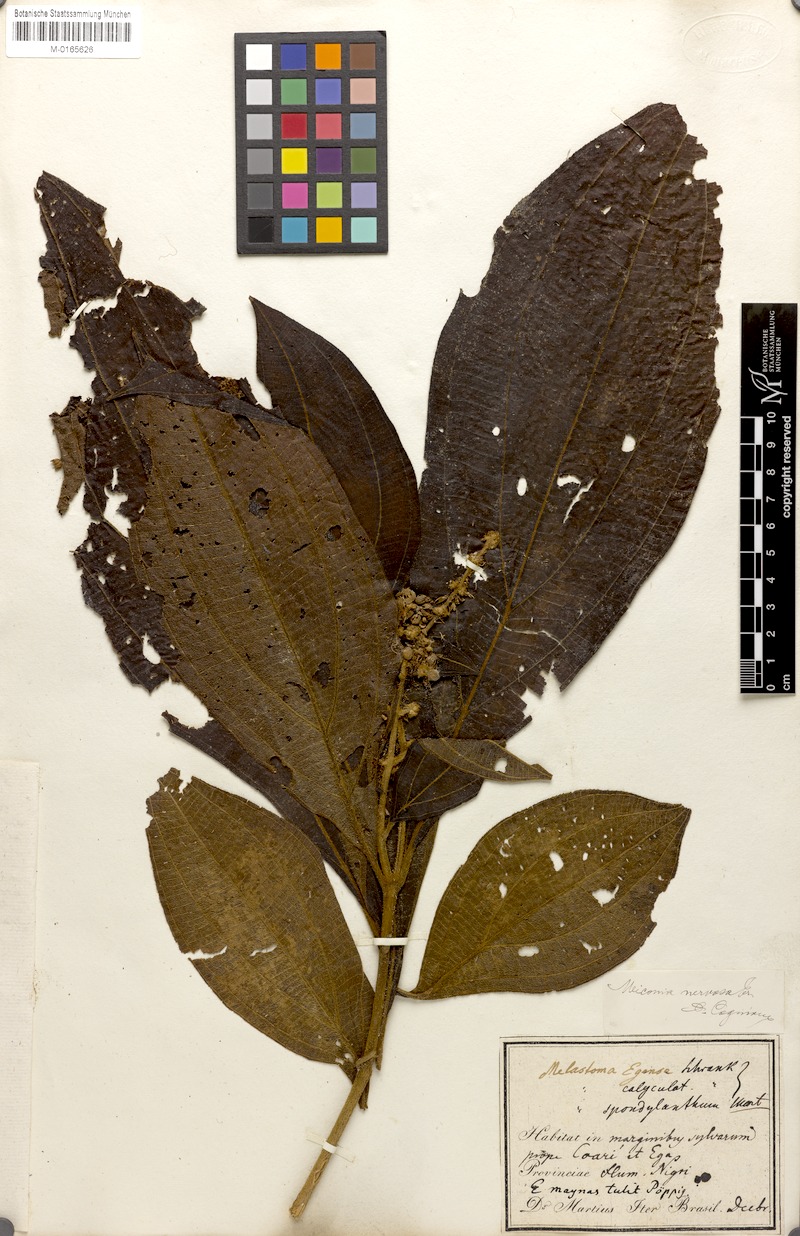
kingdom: Plantae
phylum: Tracheophyta
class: Magnoliopsida
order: Myrtales
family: Melastomataceae
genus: Miconia
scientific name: Miconia nervosa
